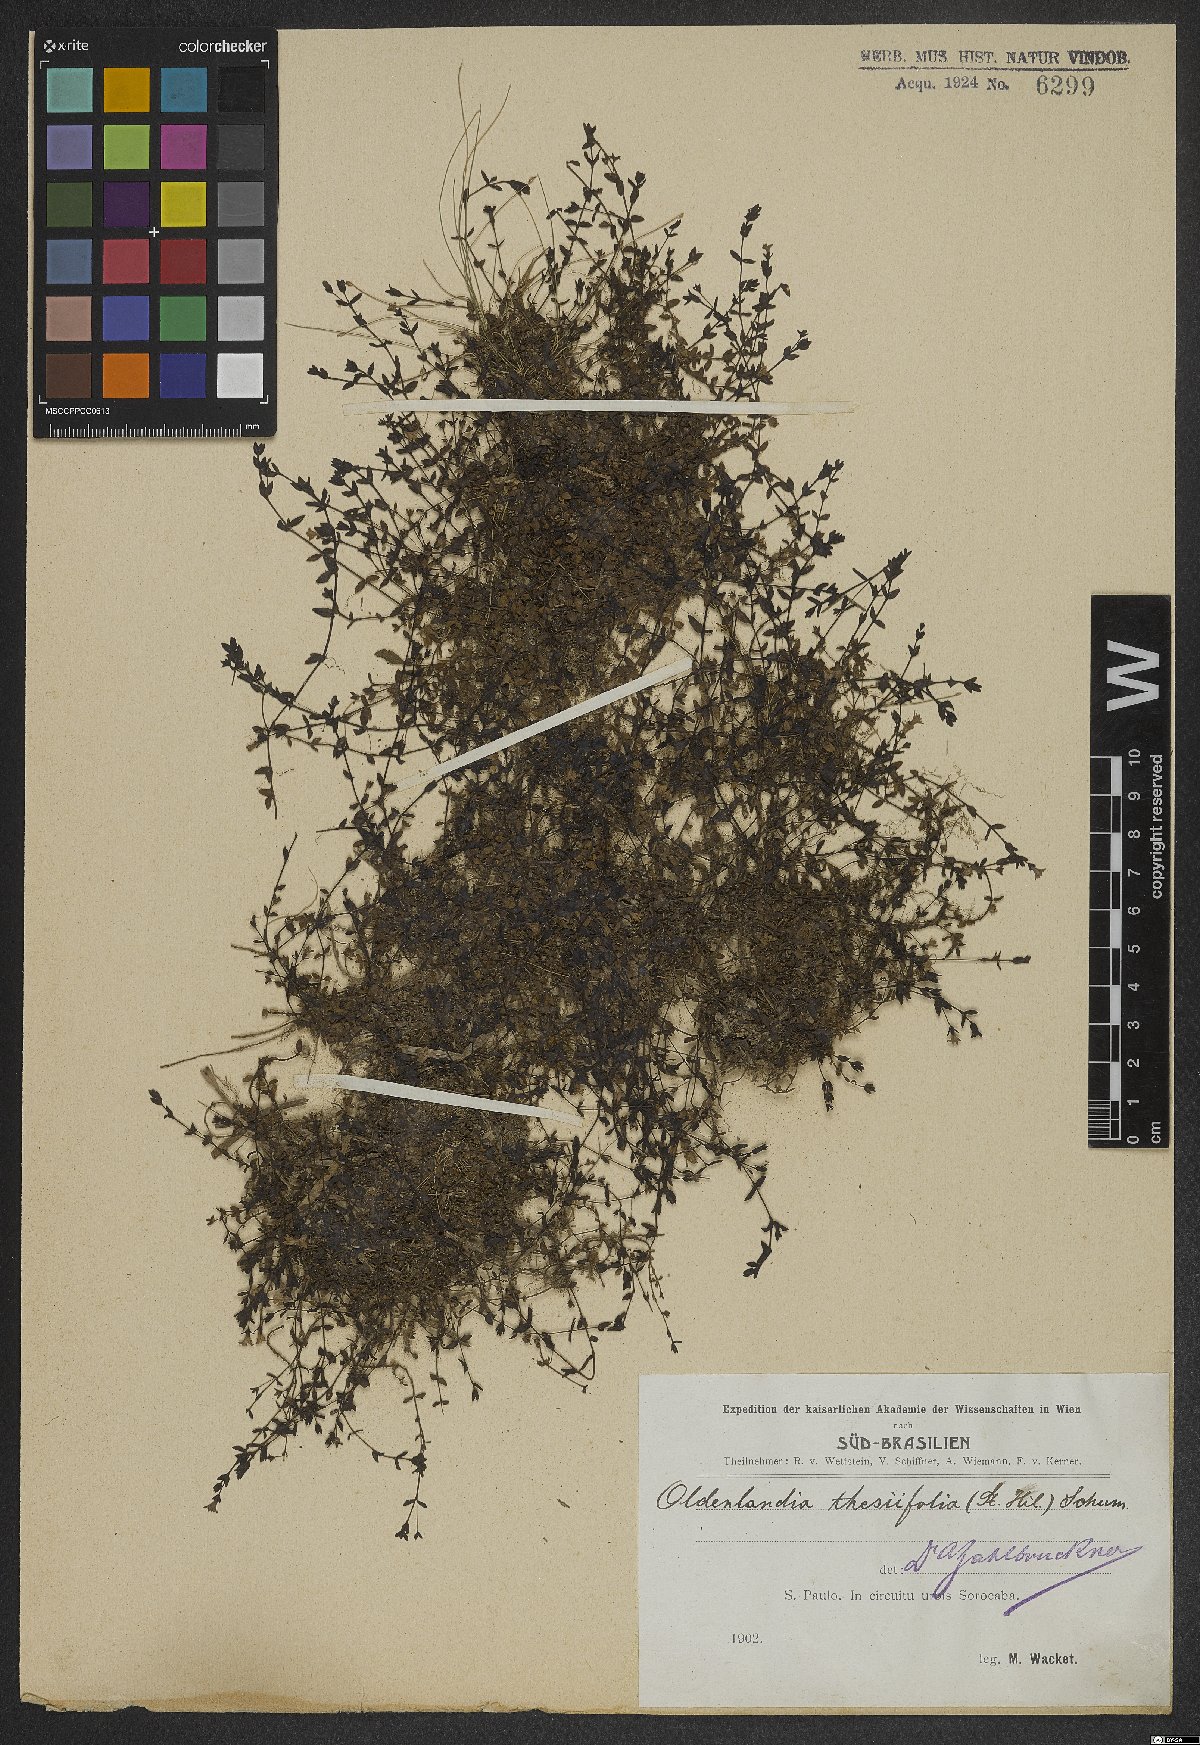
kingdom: Plantae
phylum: Tracheophyta
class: Magnoliopsida
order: Gentianales
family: Rubiaceae
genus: Oldenlandia
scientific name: Oldenlandia salzmannii
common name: Salzmann's mille graines
